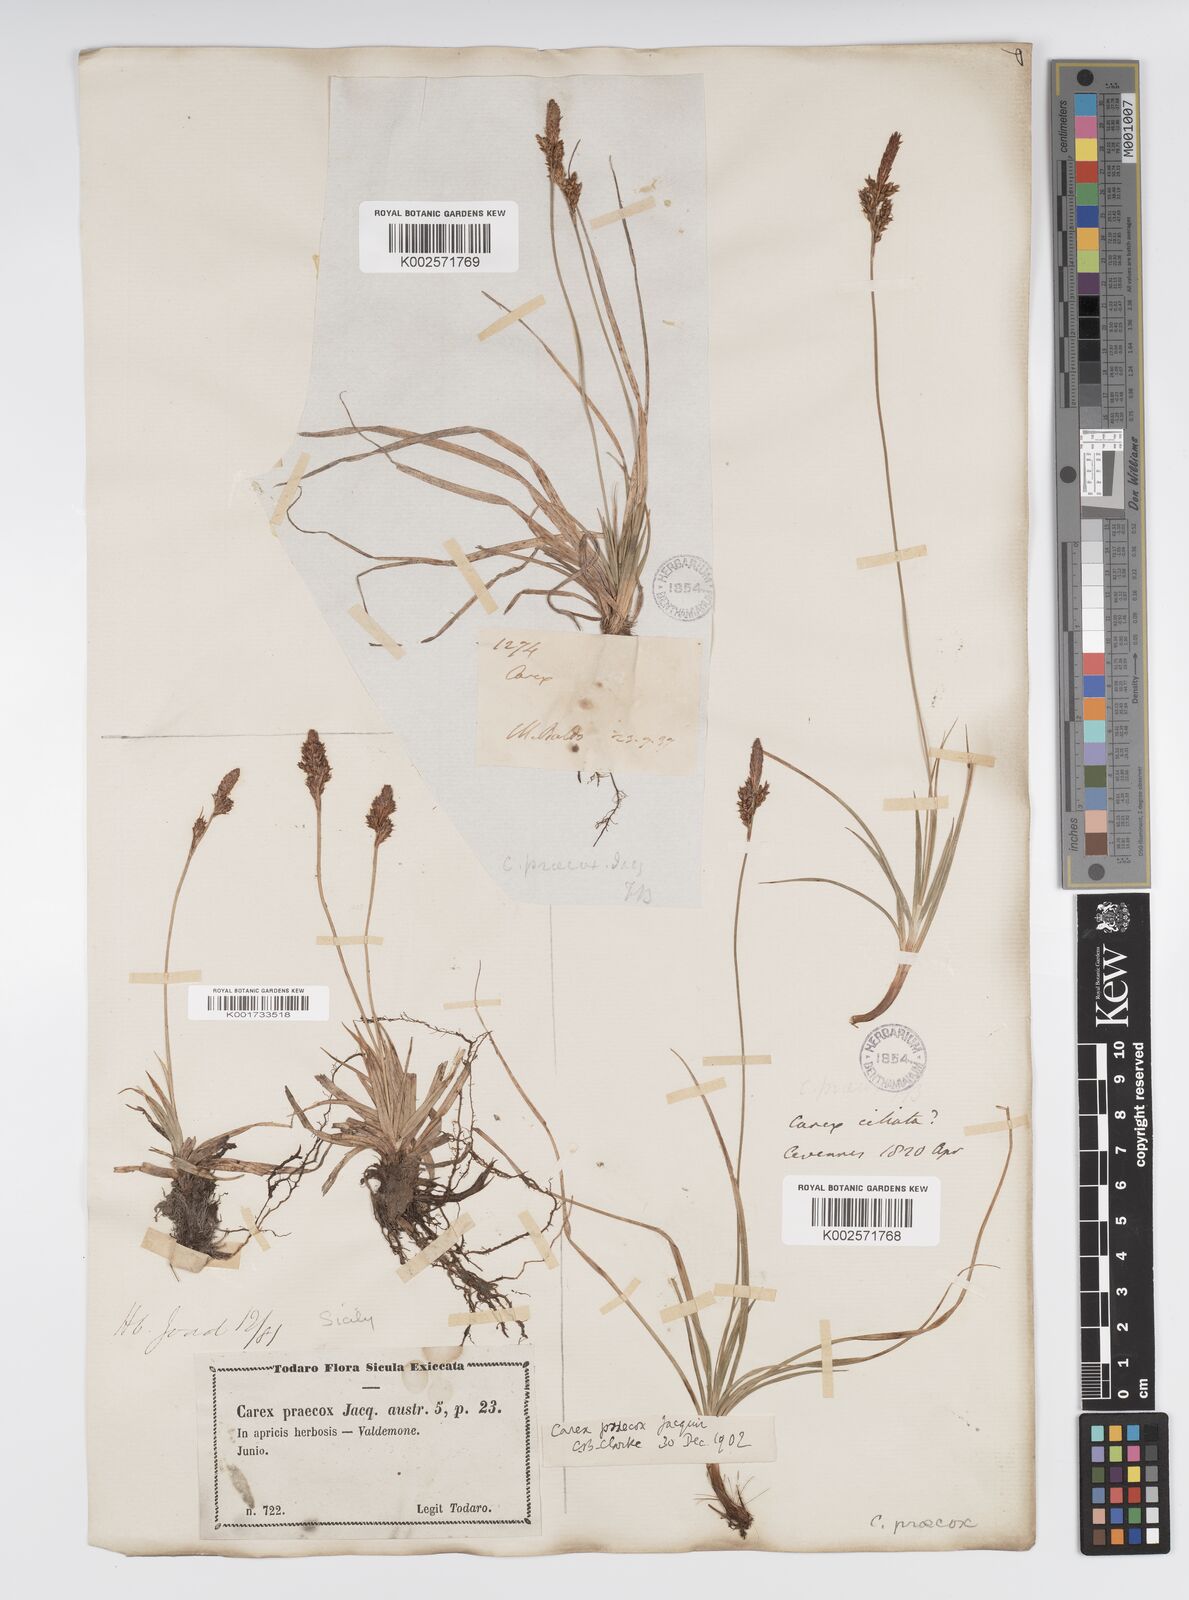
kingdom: Plantae
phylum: Tracheophyta
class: Liliopsida
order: Poales
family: Cyperaceae
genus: Carex
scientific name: Carex caryophyllea
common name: Spring sedge
